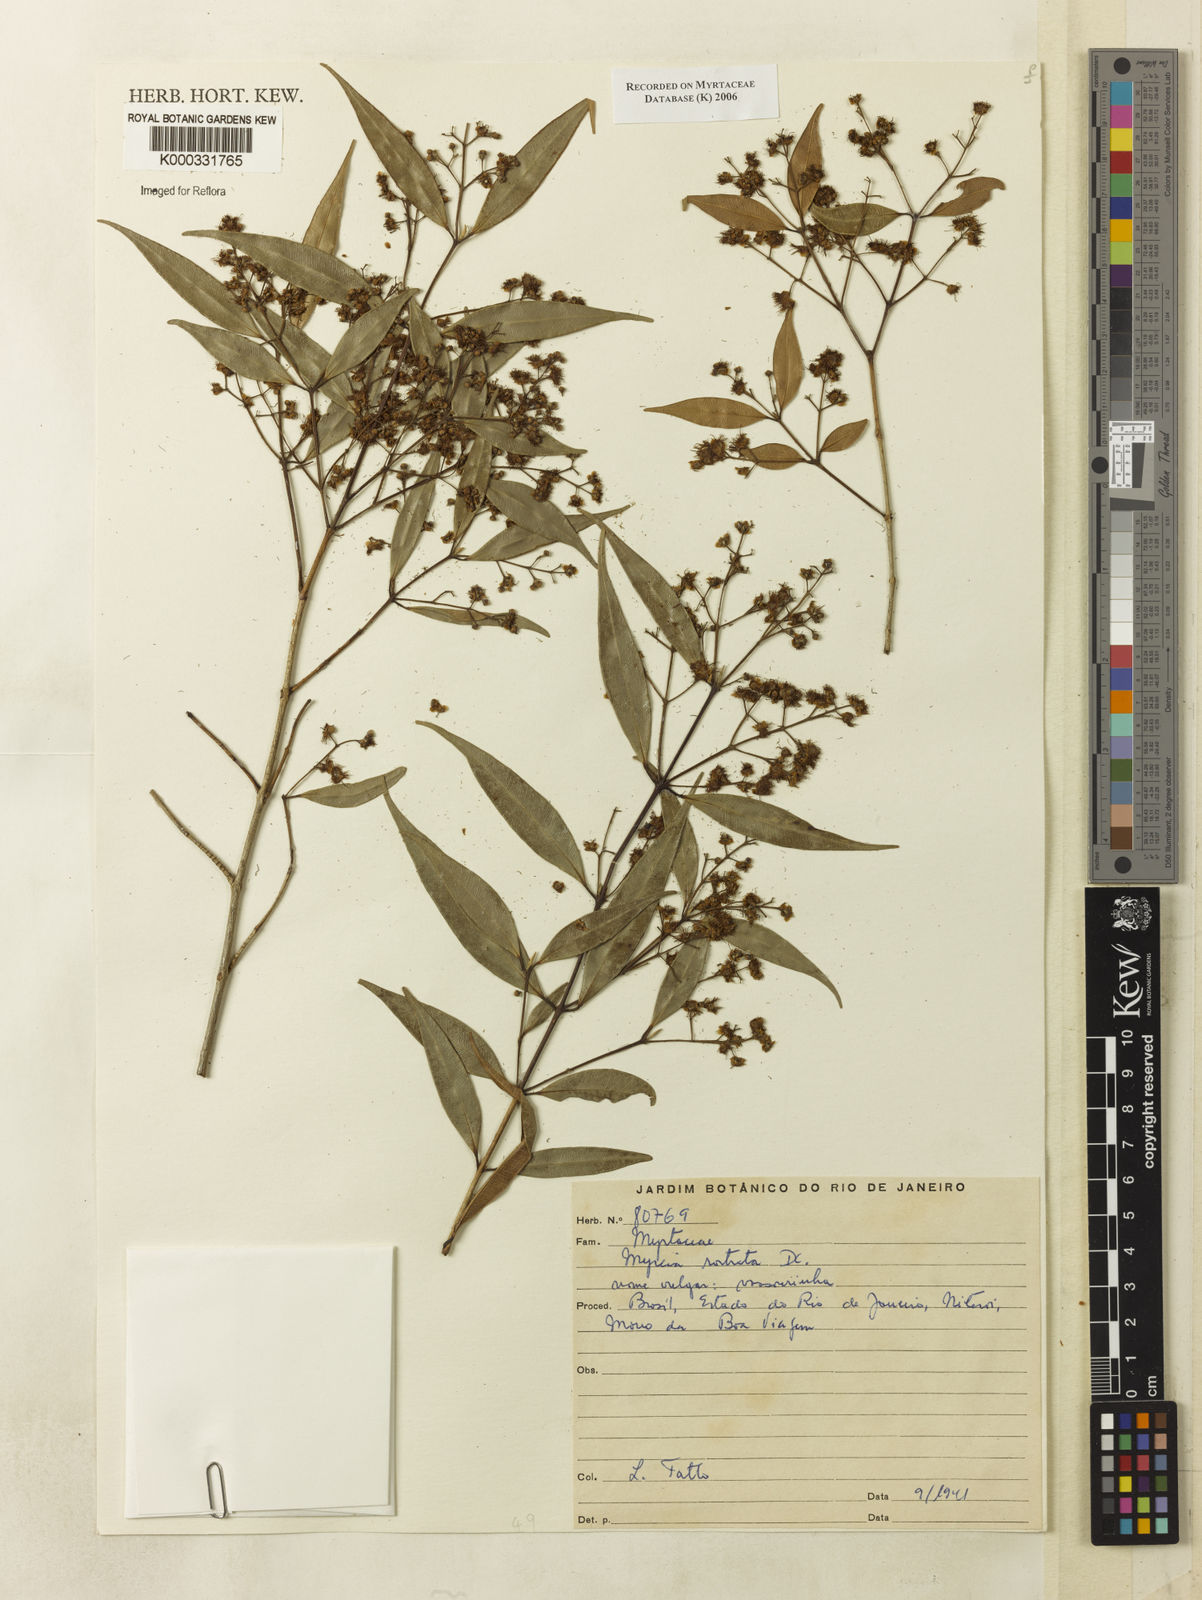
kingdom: Plantae
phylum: Tracheophyta
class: Magnoliopsida
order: Myrtales
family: Myrtaceae
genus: Myrcia
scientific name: Myrcia splendens
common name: Surinam cherry
